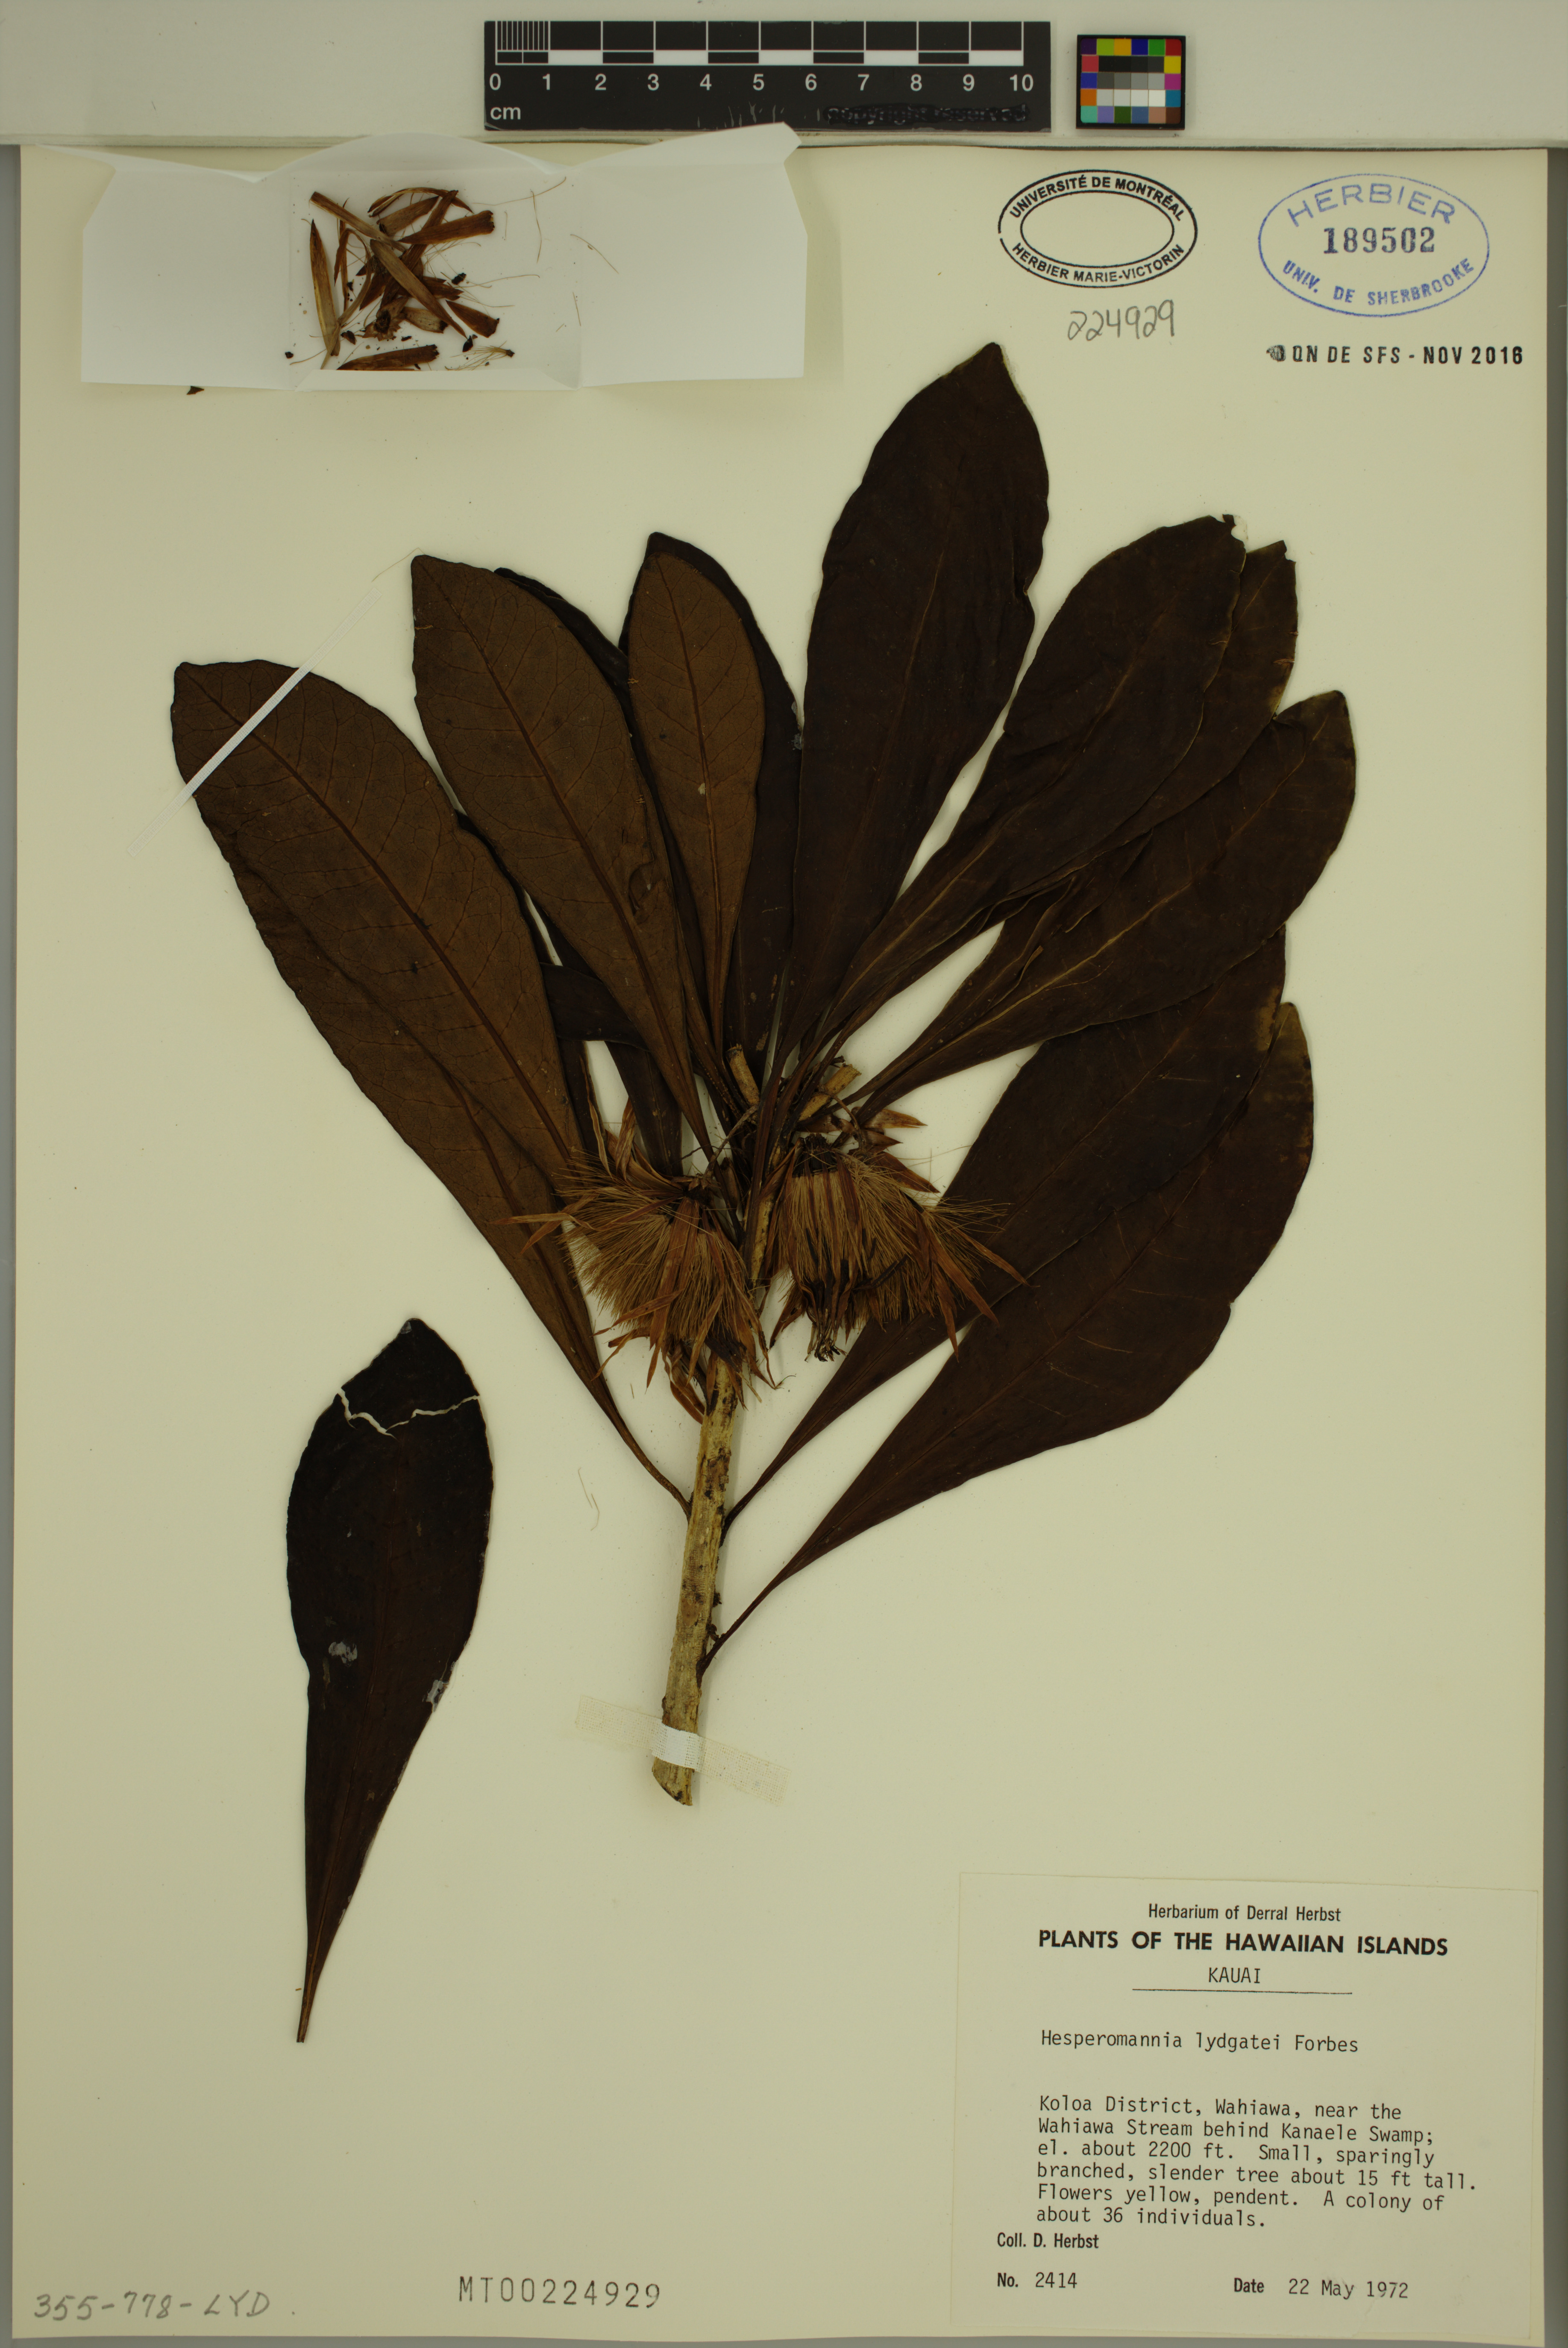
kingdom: Plantae
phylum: Tracheophyta
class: Magnoliopsida
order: Asterales
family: Asteraceae
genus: Hesperomannia
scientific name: Hesperomannia lydgatei
